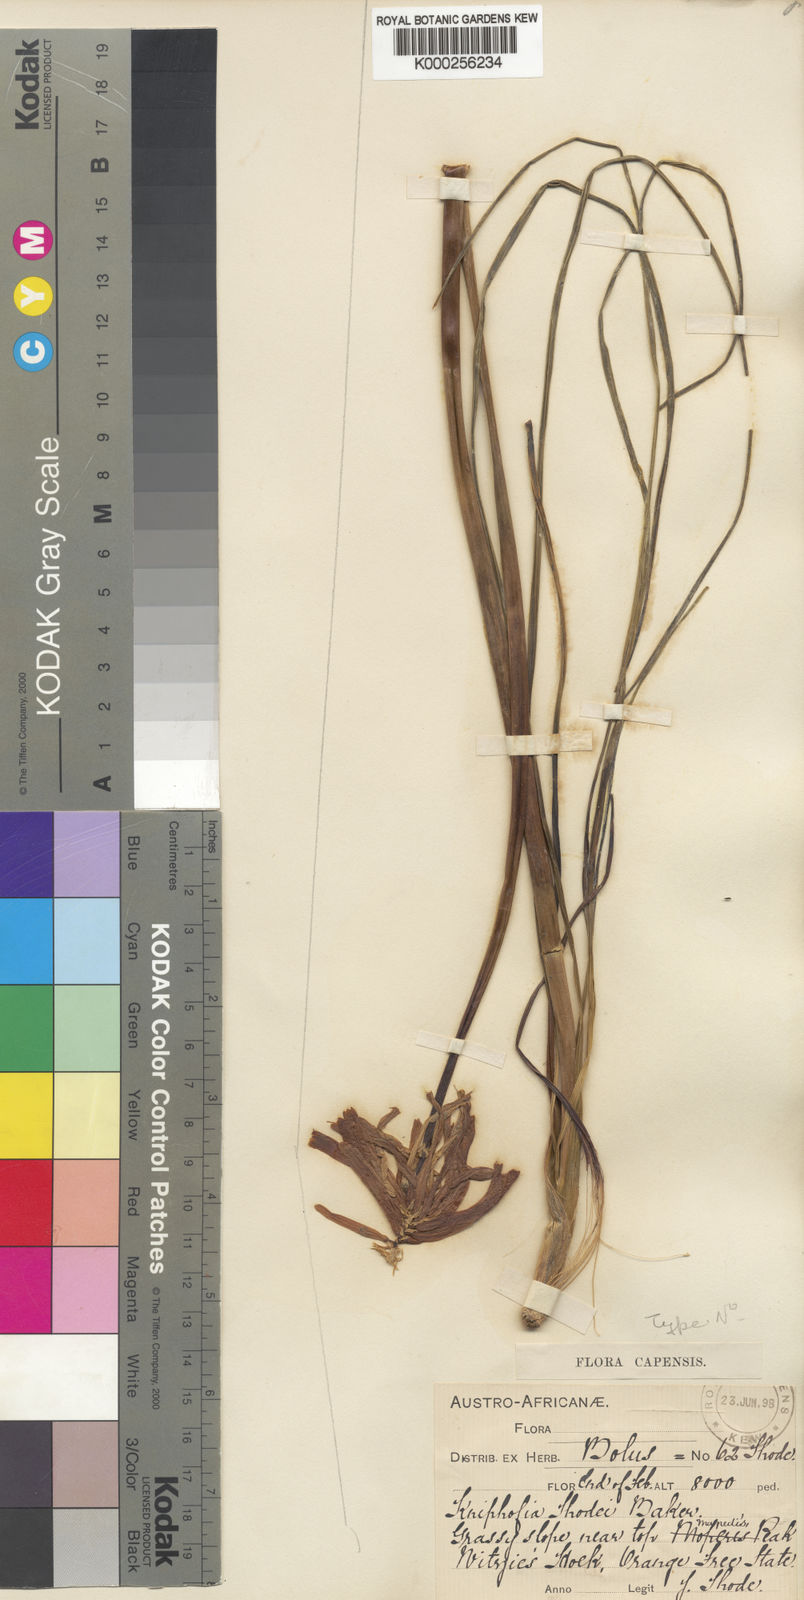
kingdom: Plantae
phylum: Tracheophyta
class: Liliopsida
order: Asparagales
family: Asphodelaceae
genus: Kniphofia
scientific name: Kniphofia thodei
